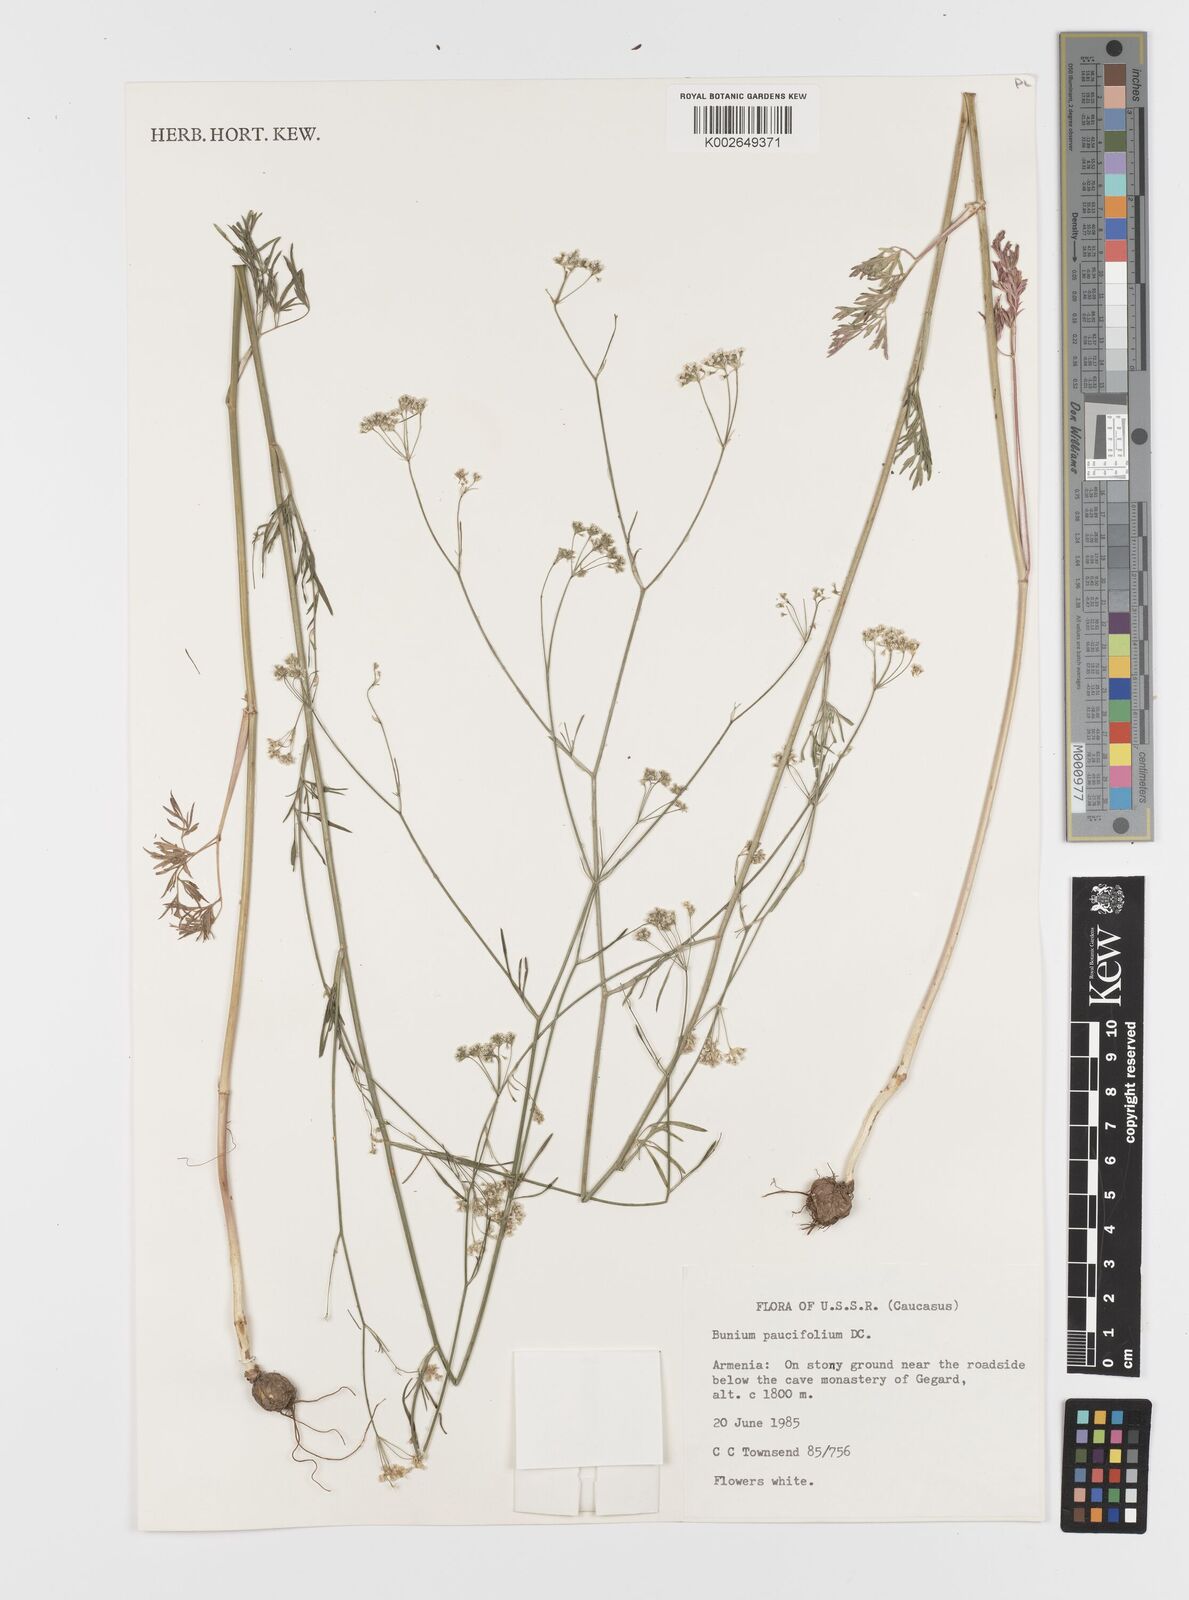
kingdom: Plantae
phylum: Tracheophyta
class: Magnoliopsida
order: Apiales
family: Apiaceae
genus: Bunium
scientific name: Bunium paucifolium
